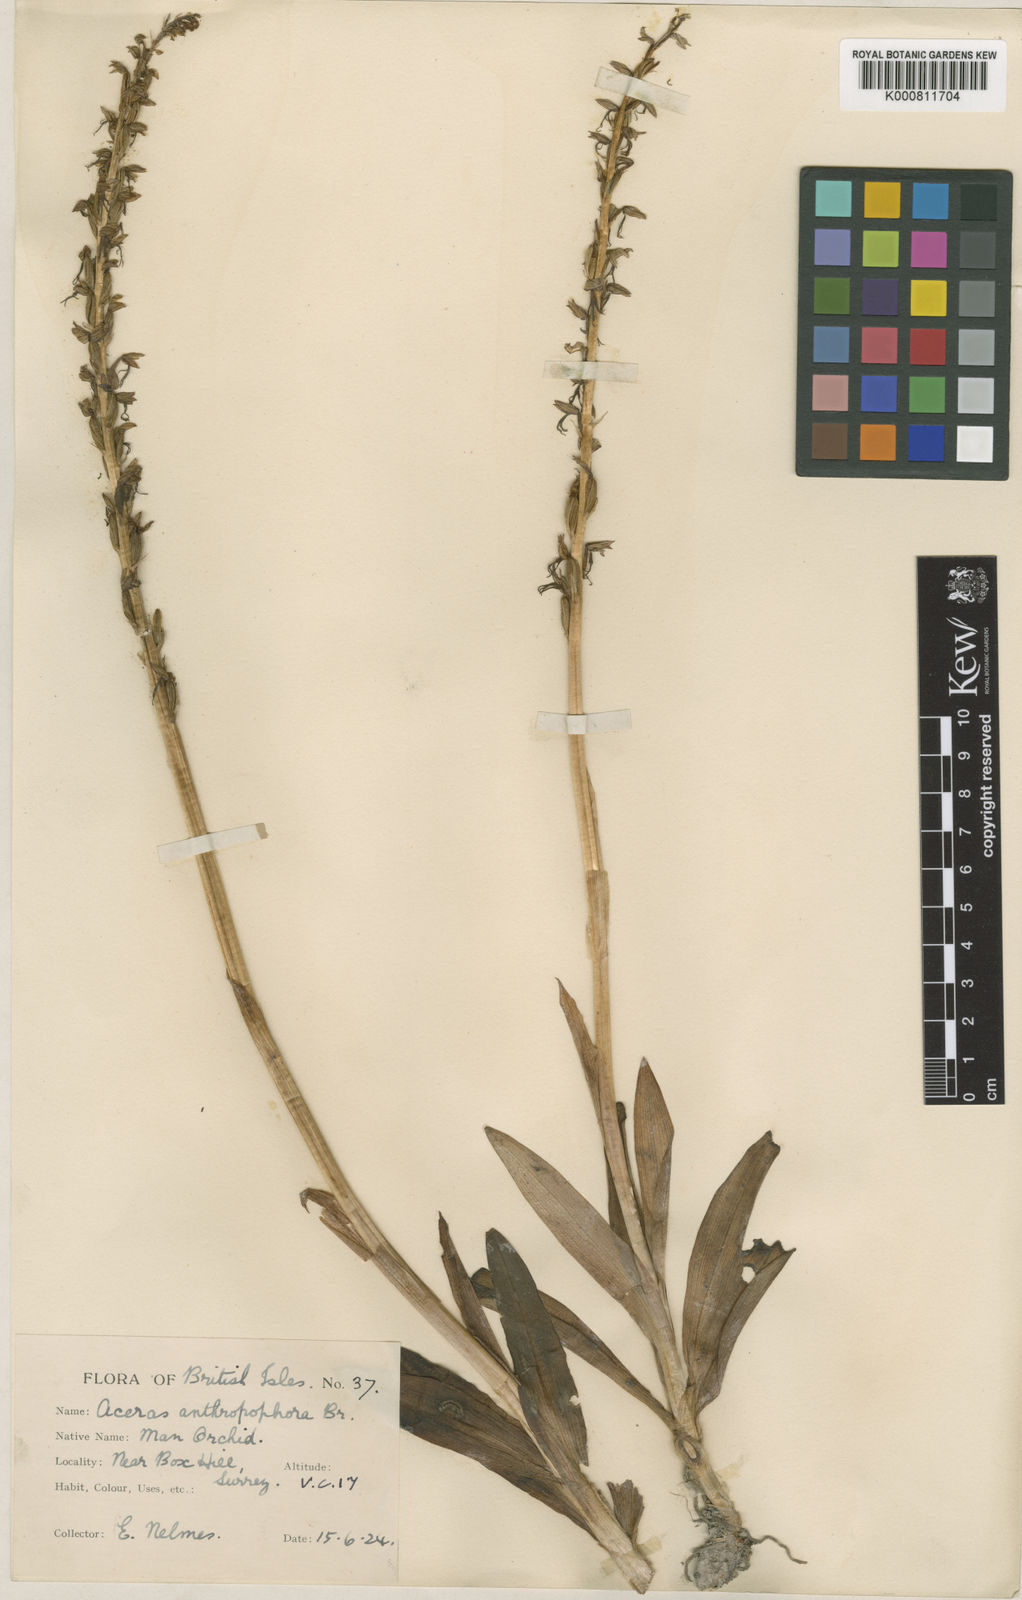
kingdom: Plantae
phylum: Tracheophyta
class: Liliopsida
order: Asparagales
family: Orchidaceae
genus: Orchis
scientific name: Orchis
